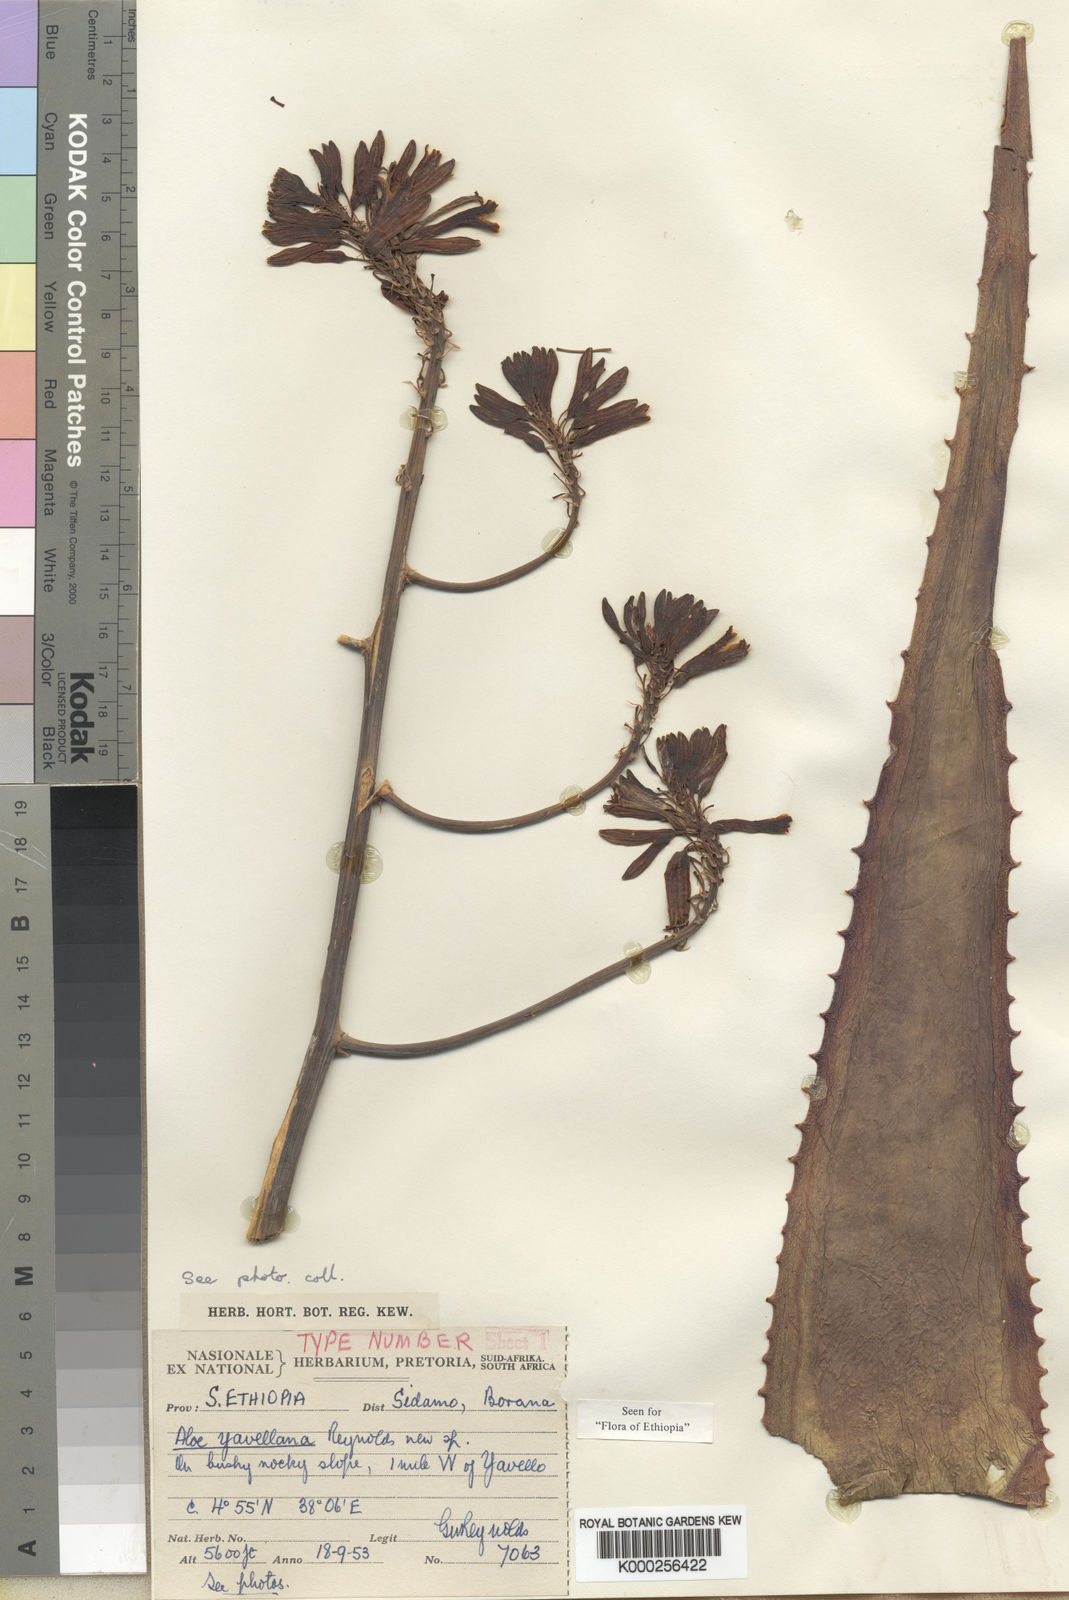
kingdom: Plantae
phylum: Tracheophyta
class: Liliopsida
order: Asparagales
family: Asphodelaceae
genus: Aloe
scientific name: Aloe yavellana
